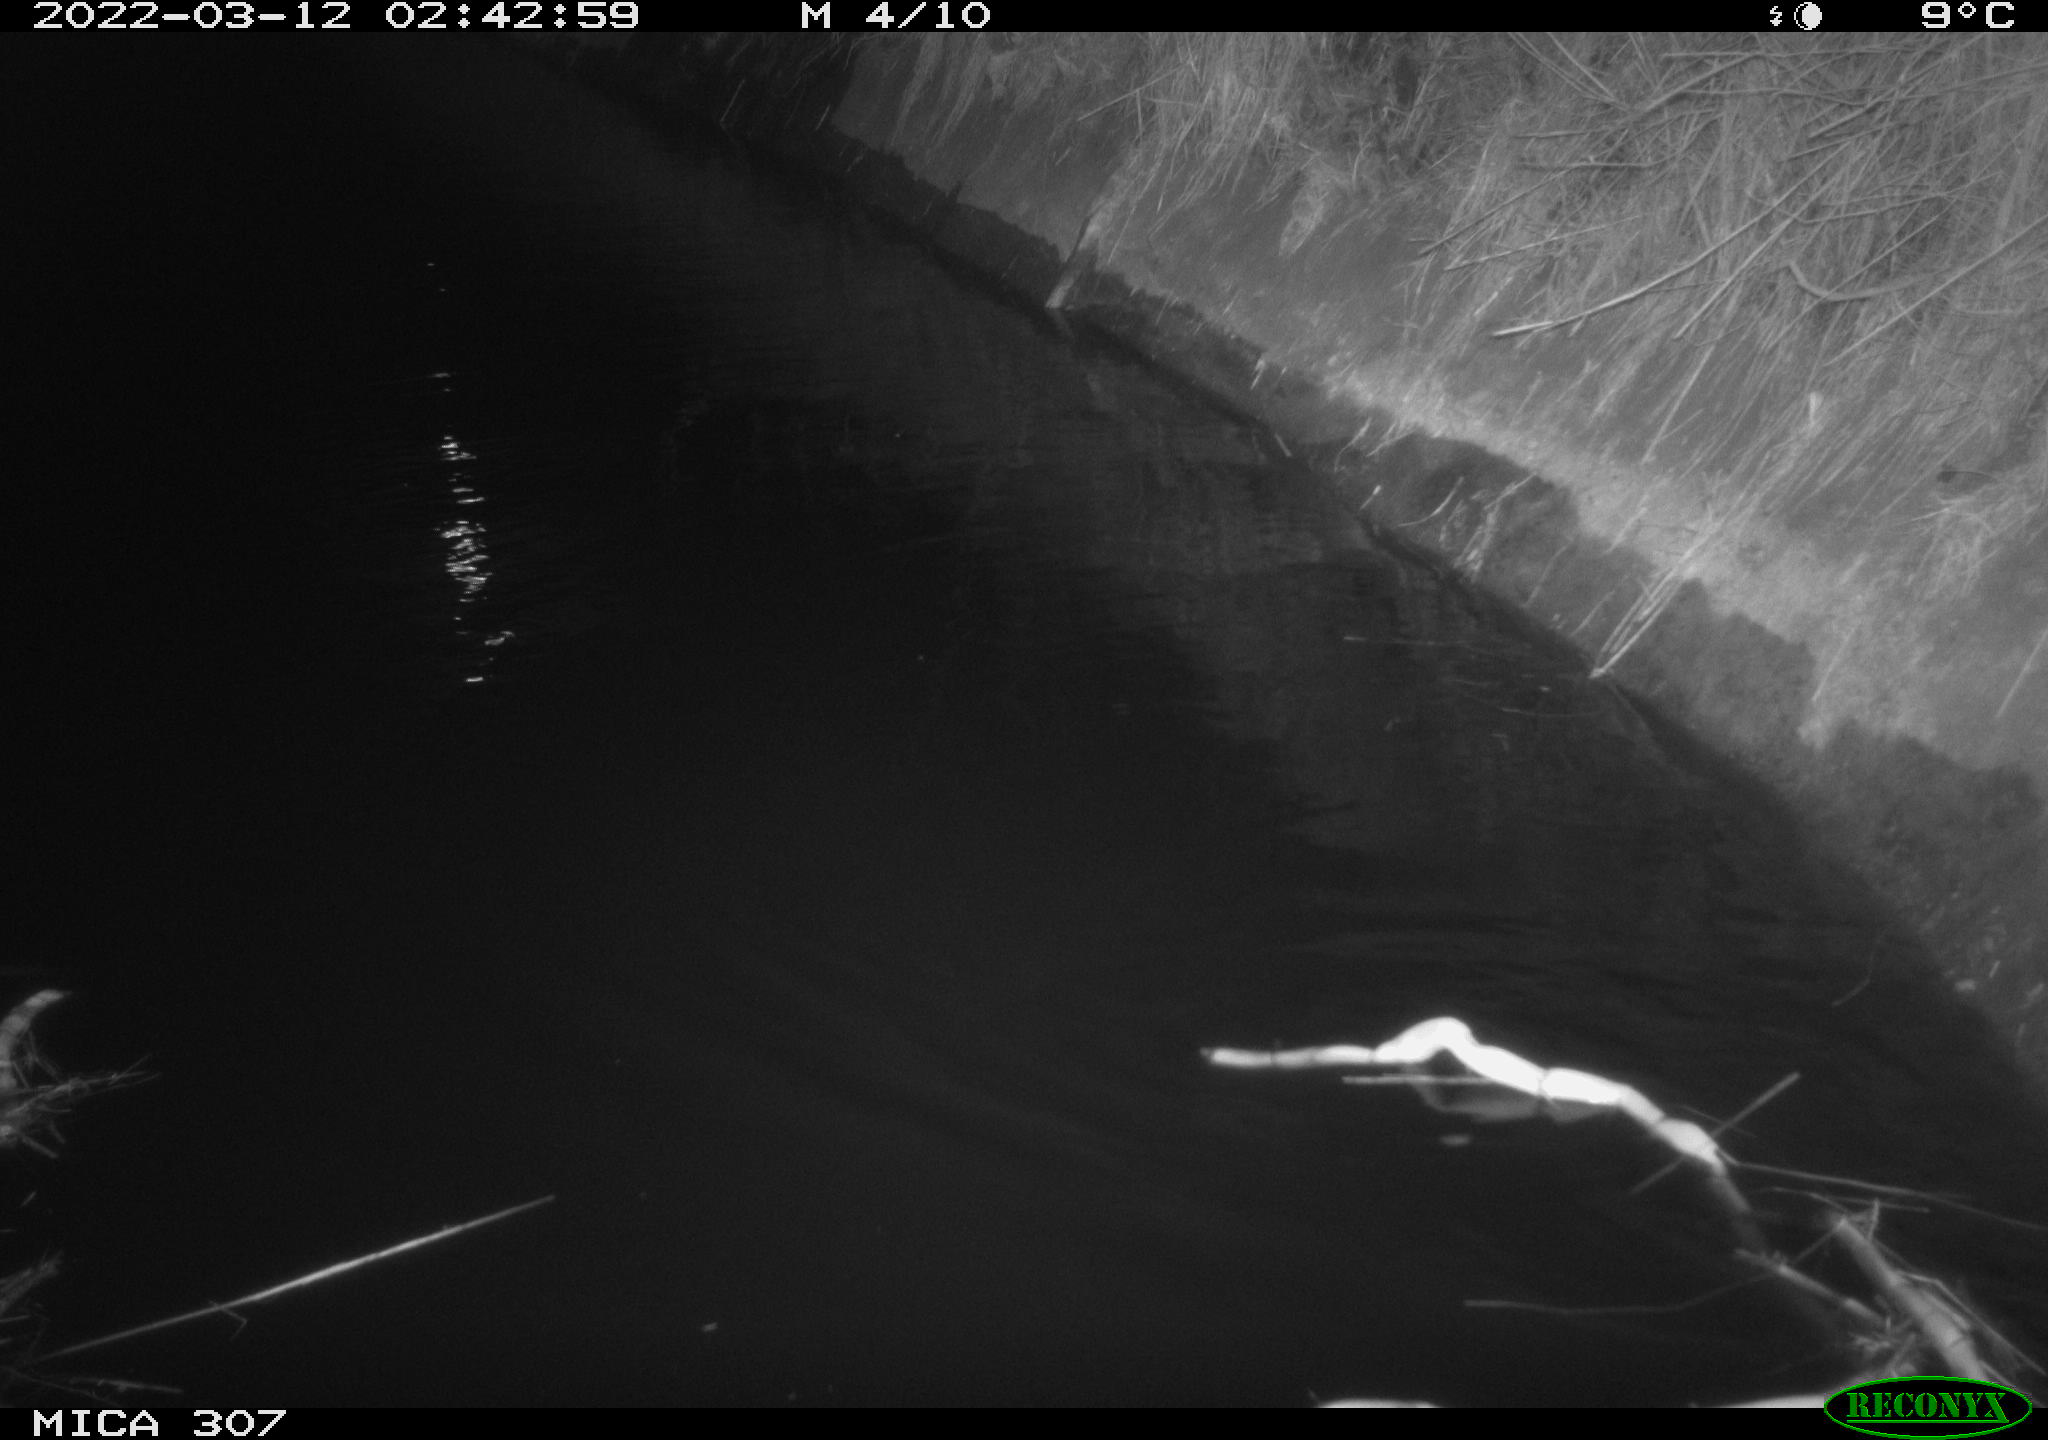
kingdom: Animalia
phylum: Chordata
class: Mammalia
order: Rodentia
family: Muridae
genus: Rattus
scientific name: Rattus norvegicus
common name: Brown rat
